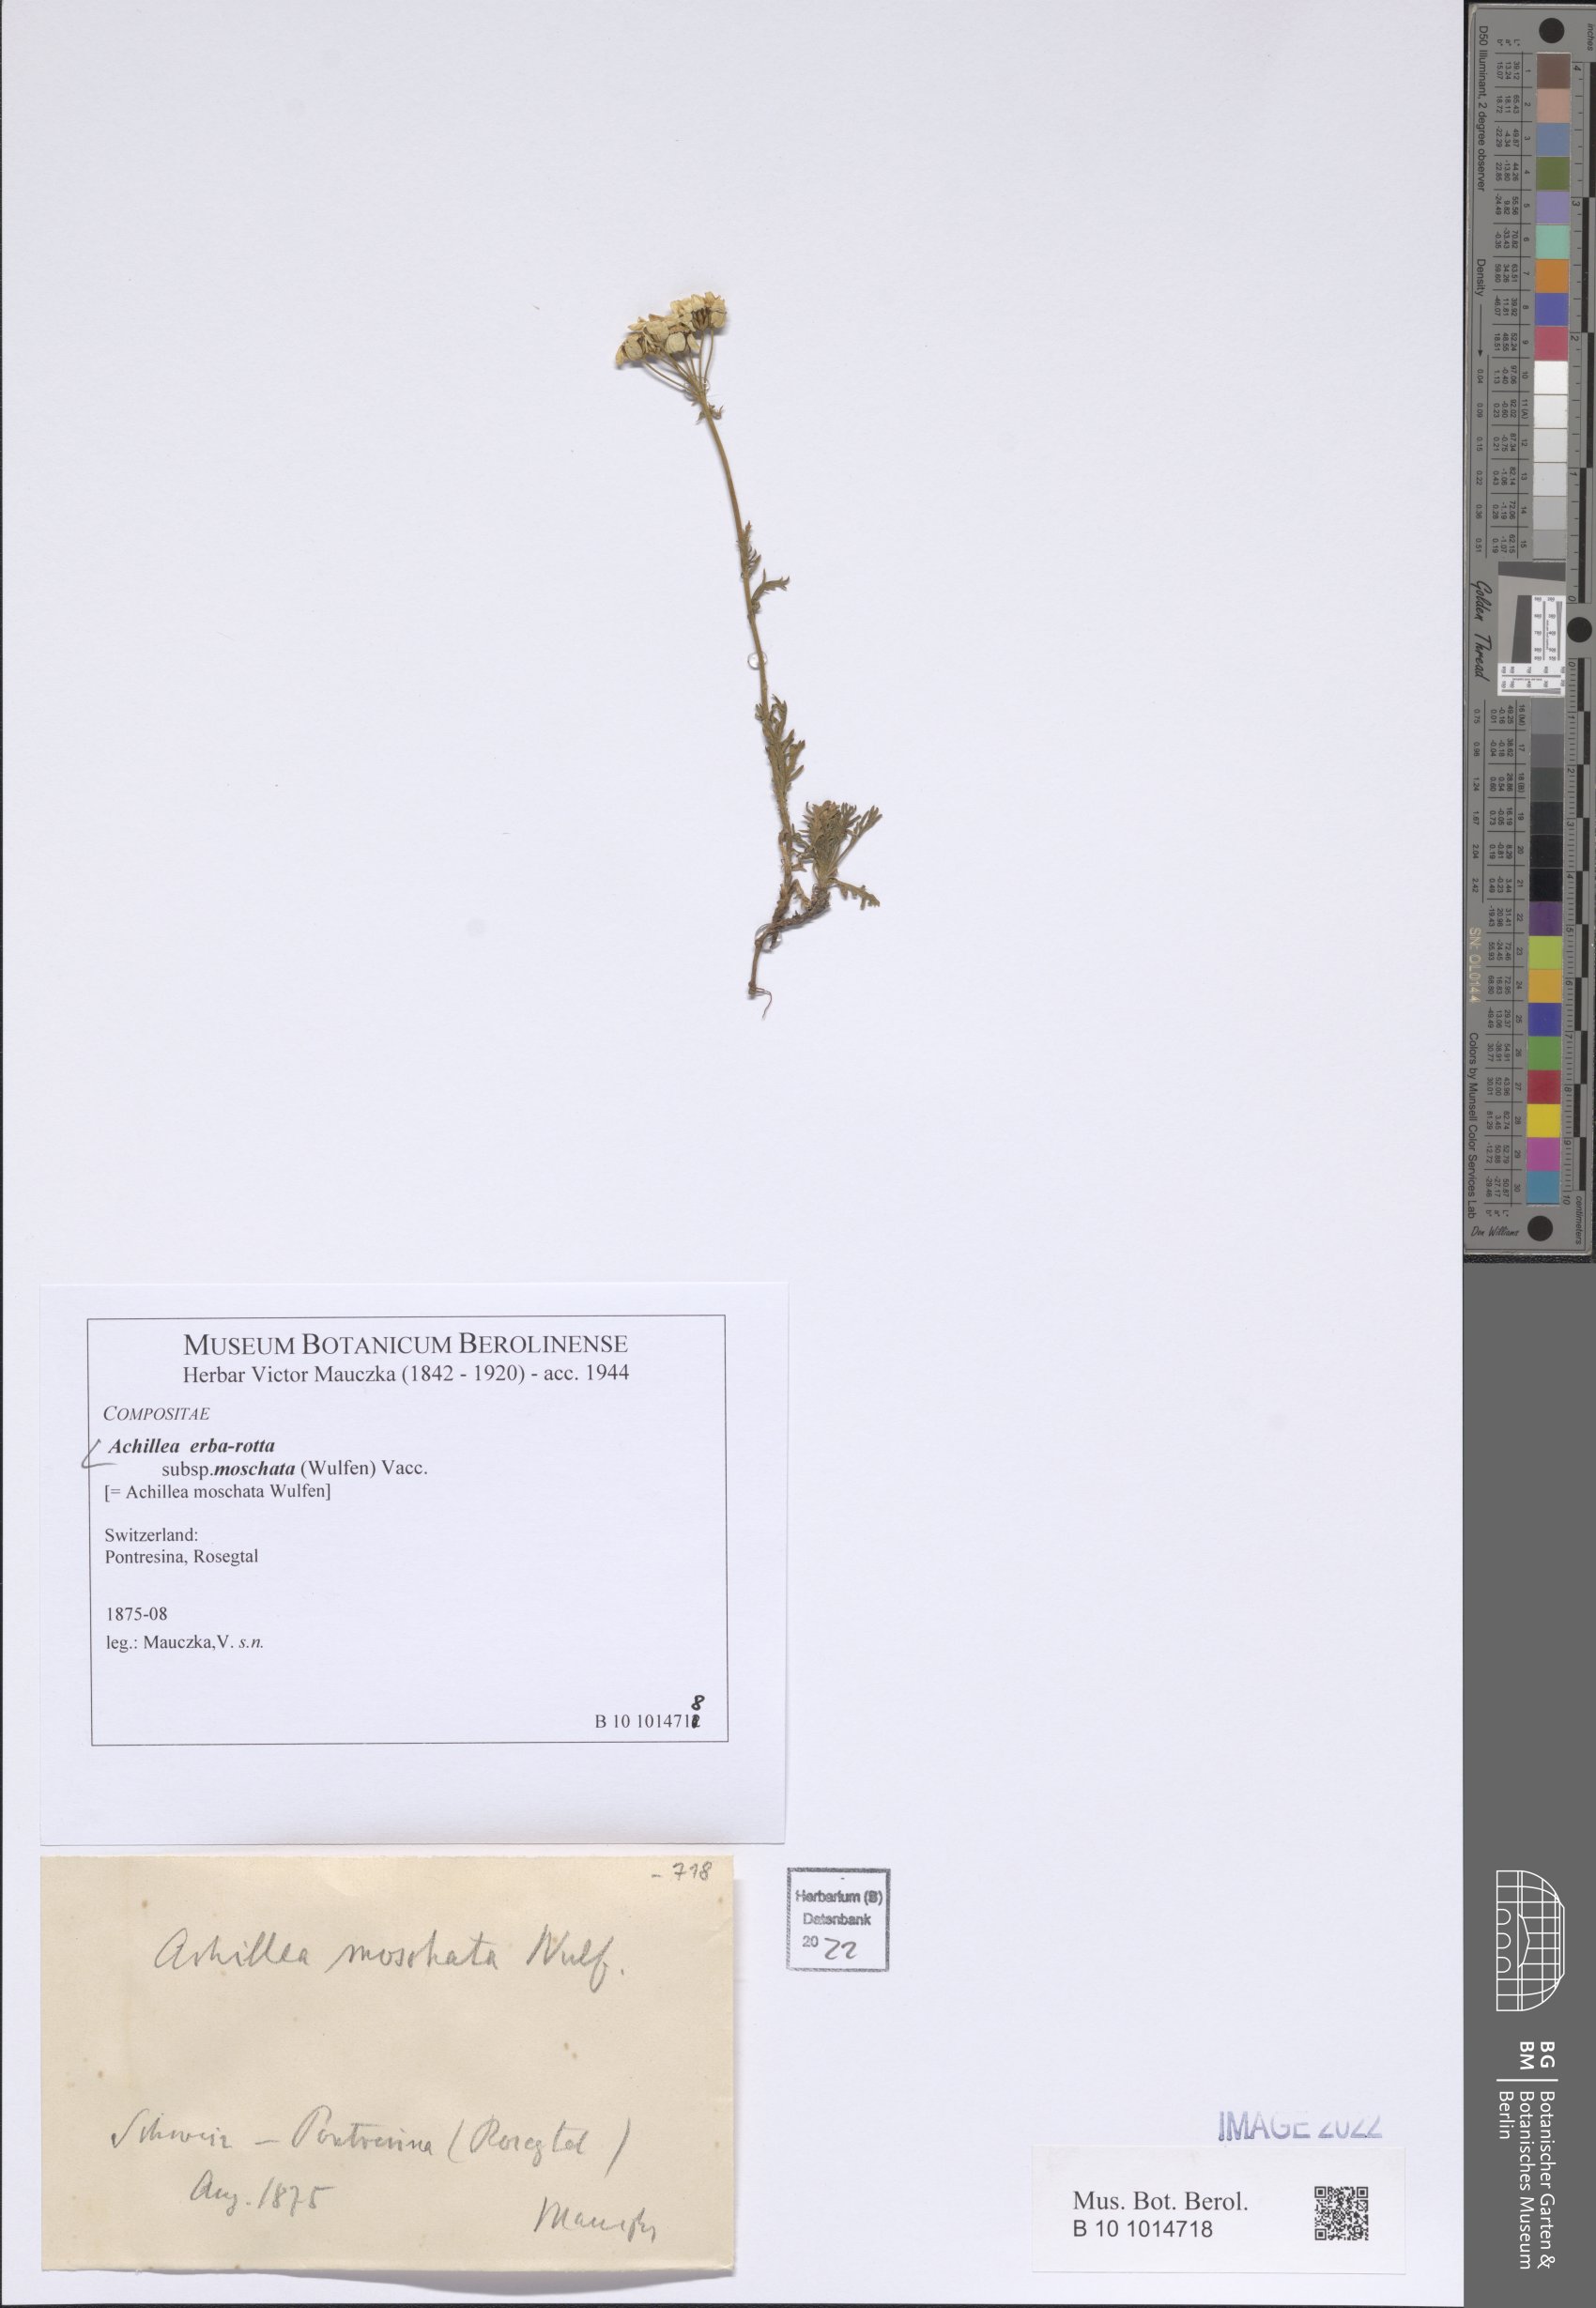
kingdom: Plantae
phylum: Tracheophyta
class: Magnoliopsida
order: Asterales
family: Asteraceae
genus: Achillea
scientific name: Achillea erba-rotta
